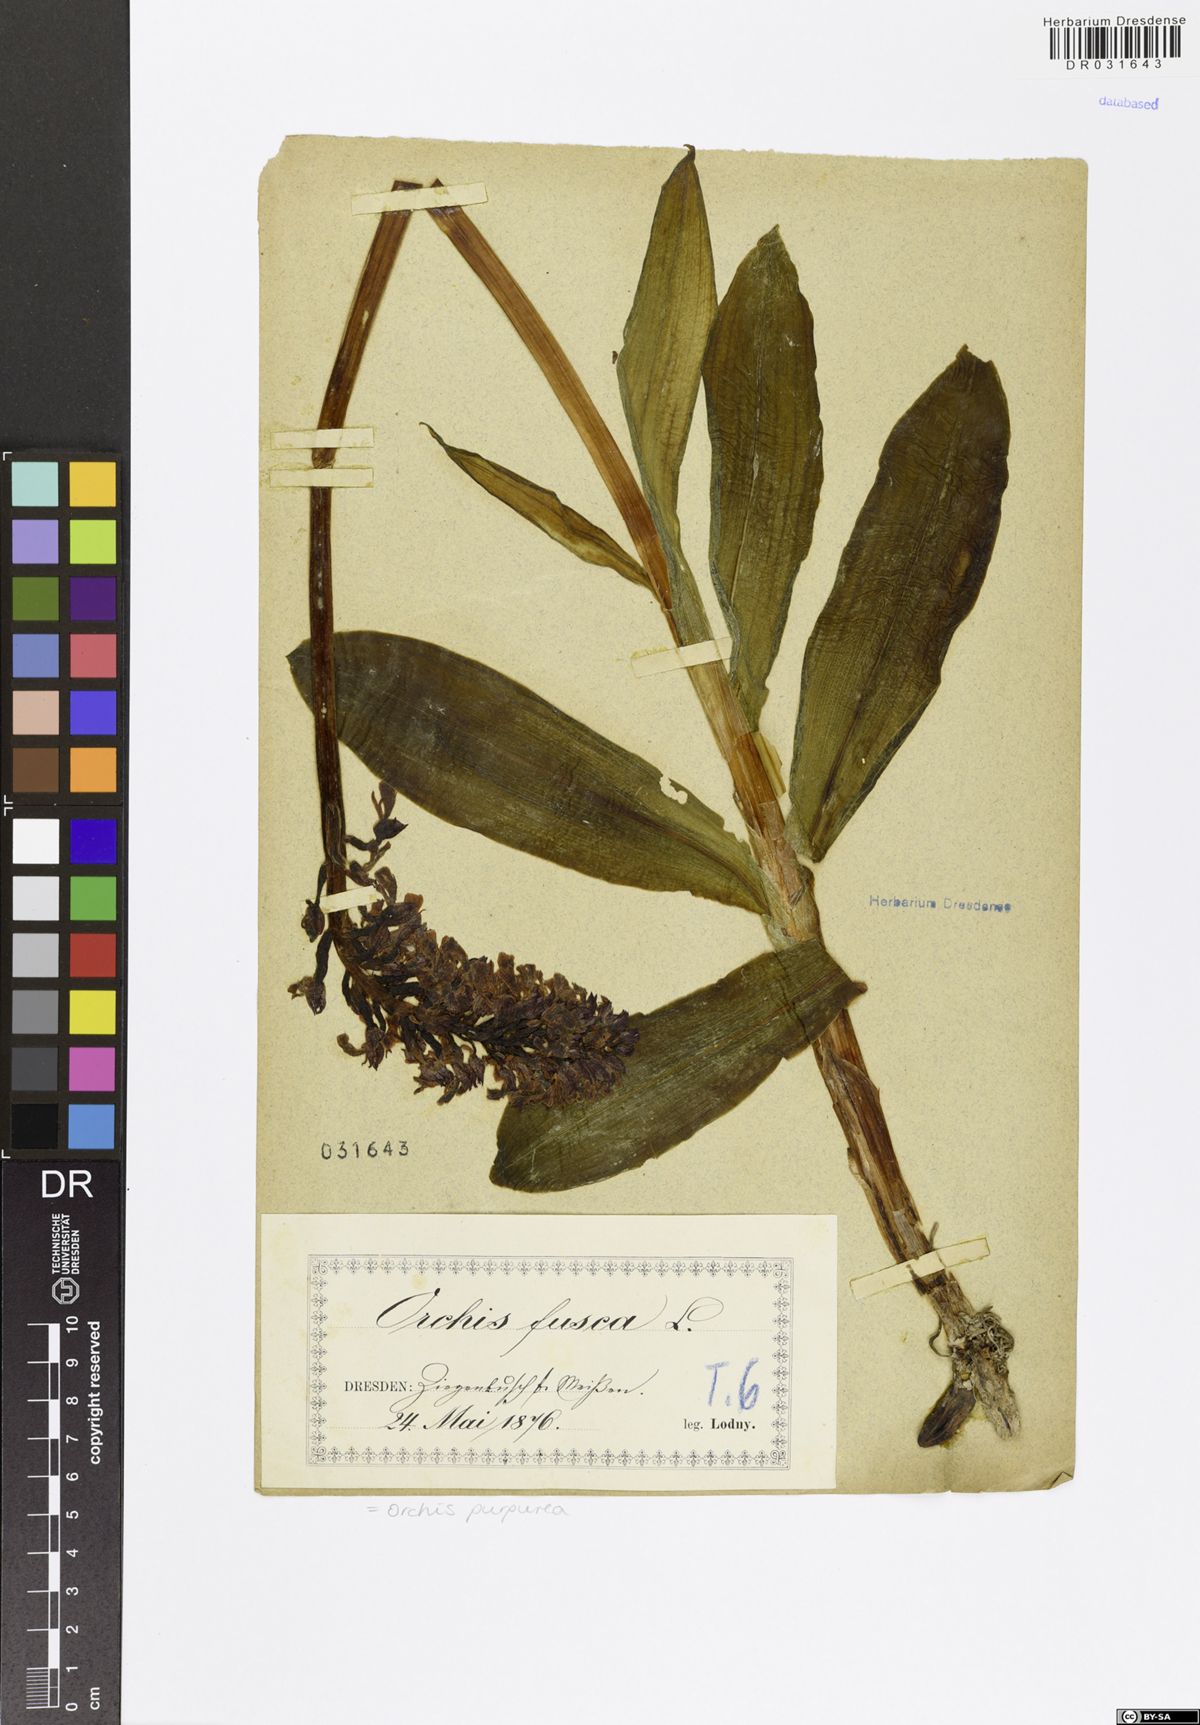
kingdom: Plantae
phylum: Tracheophyta
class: Liliopsida
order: Asparagales
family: Orchidaceae
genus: Orchis
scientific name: Orchis purpurea
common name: Lady orchid
